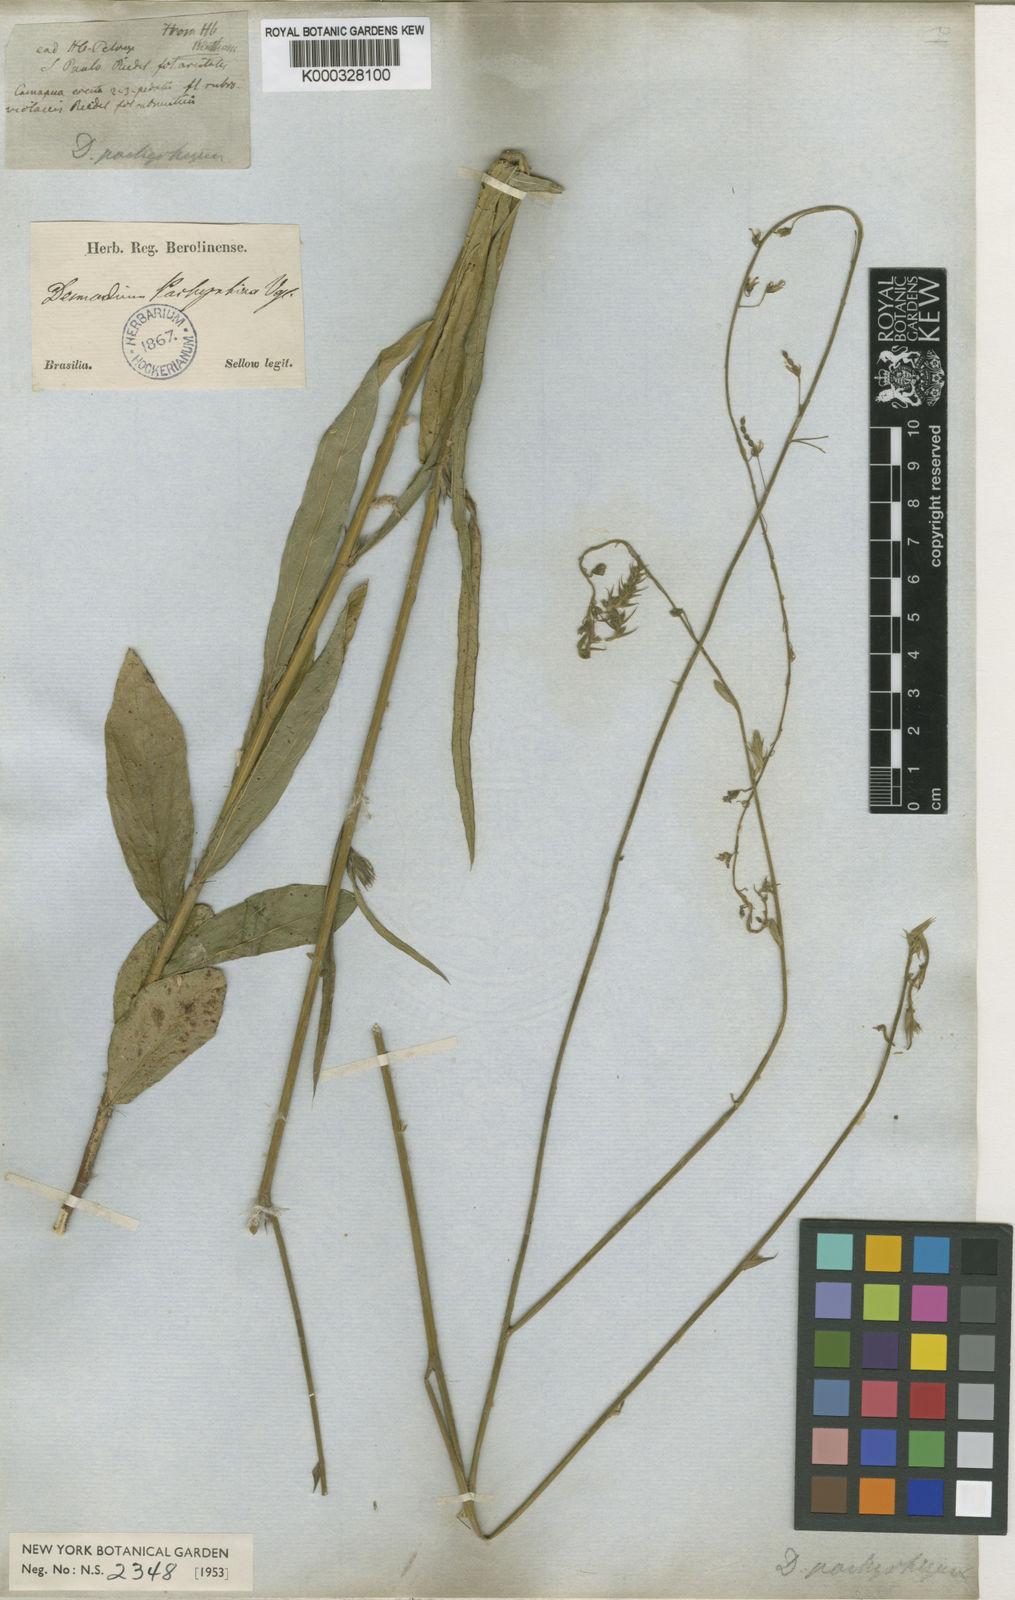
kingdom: Plantae
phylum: Tracheophyta
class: Magnoliopsida
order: Fabales
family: Fabaceae
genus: Desmodium
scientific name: Desmodium pachyrhizum
